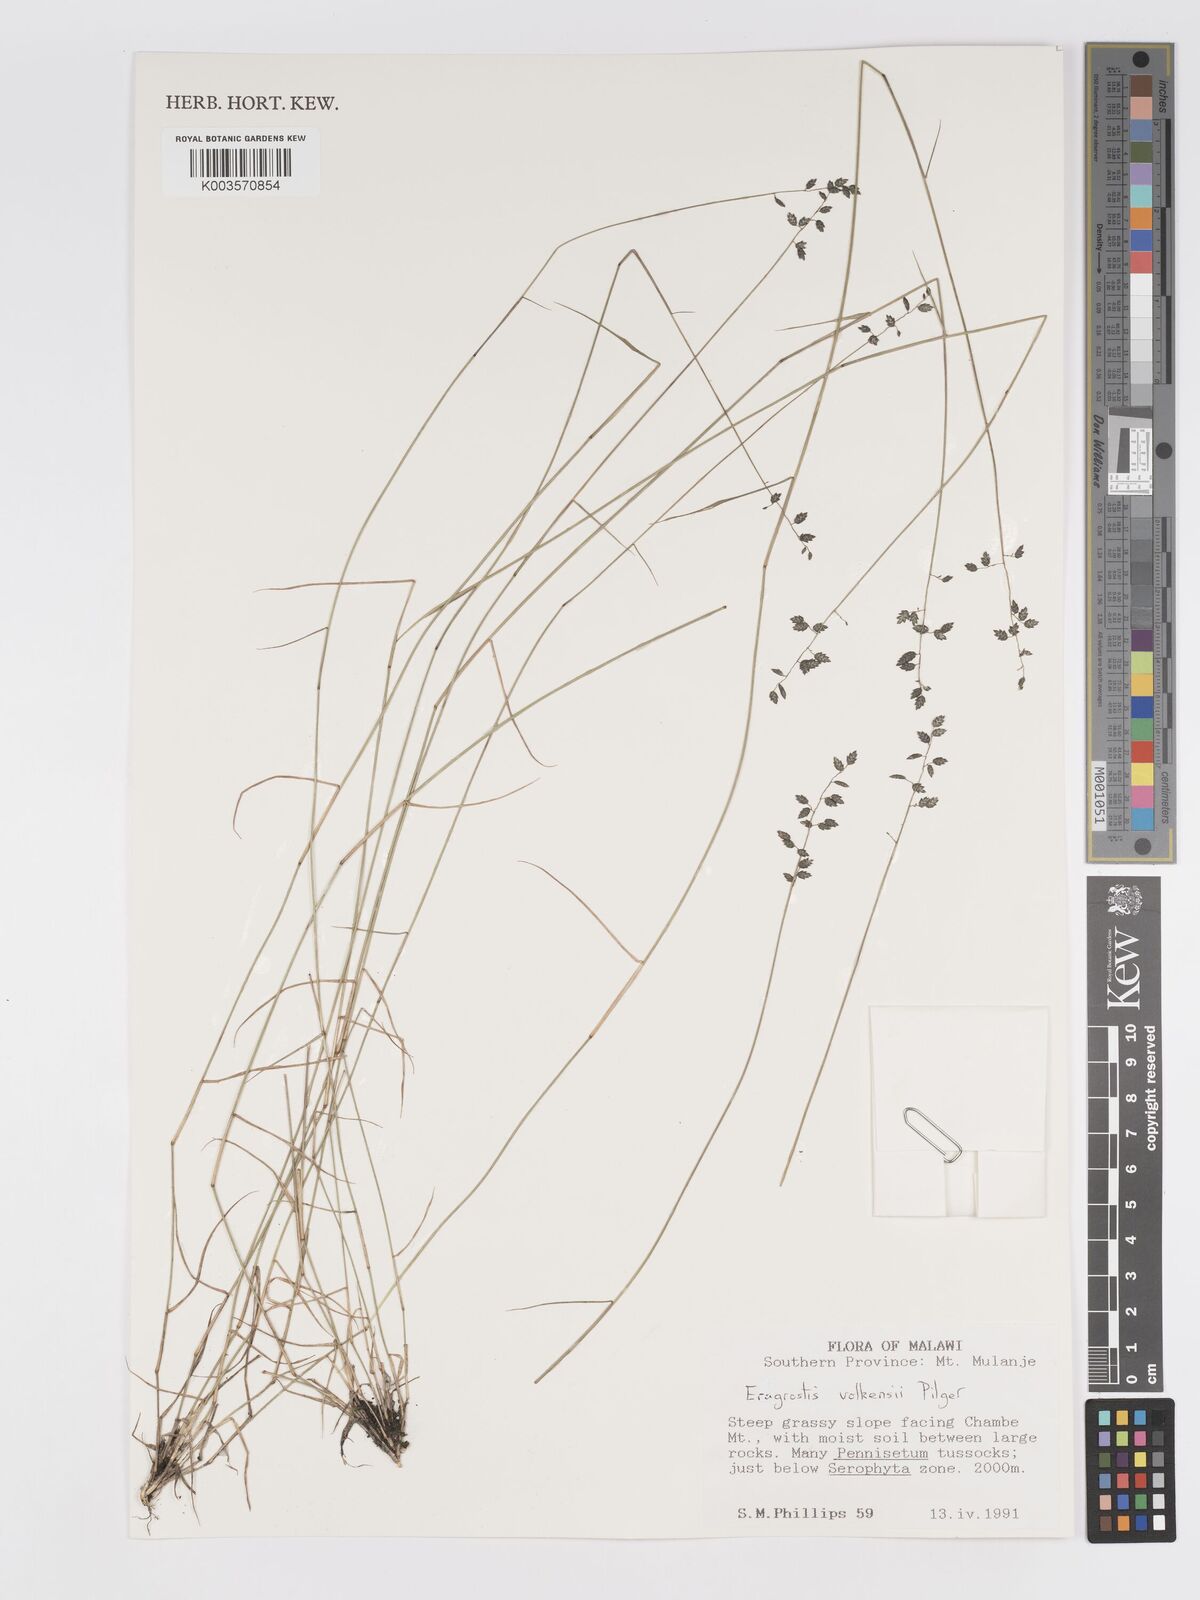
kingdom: Plantae
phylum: Tracheophyta
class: Liliopsida
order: Poales
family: Poaceae
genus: Eragrostis
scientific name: Eragrostis volkensii
